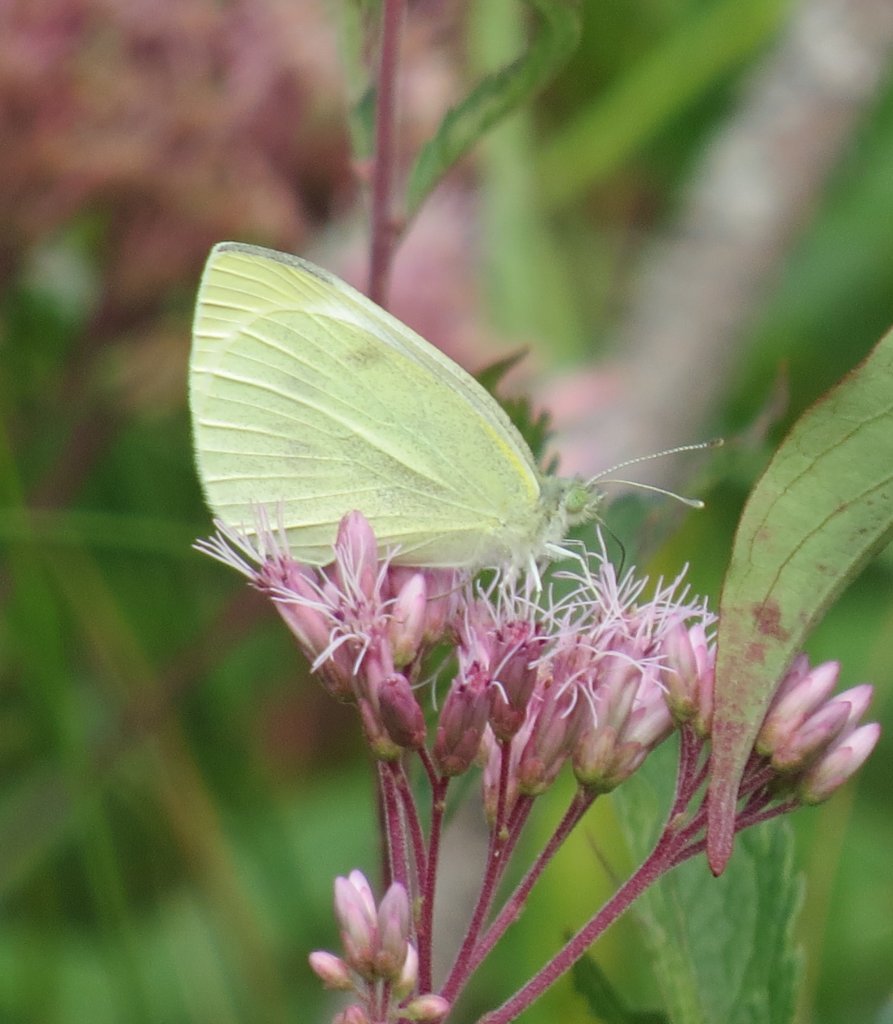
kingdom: Animalia
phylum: Arthropoda
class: Insecta
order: Lepidoptera
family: Pieridae
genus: Pieris
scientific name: Pieris rapae
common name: Cabbage White
